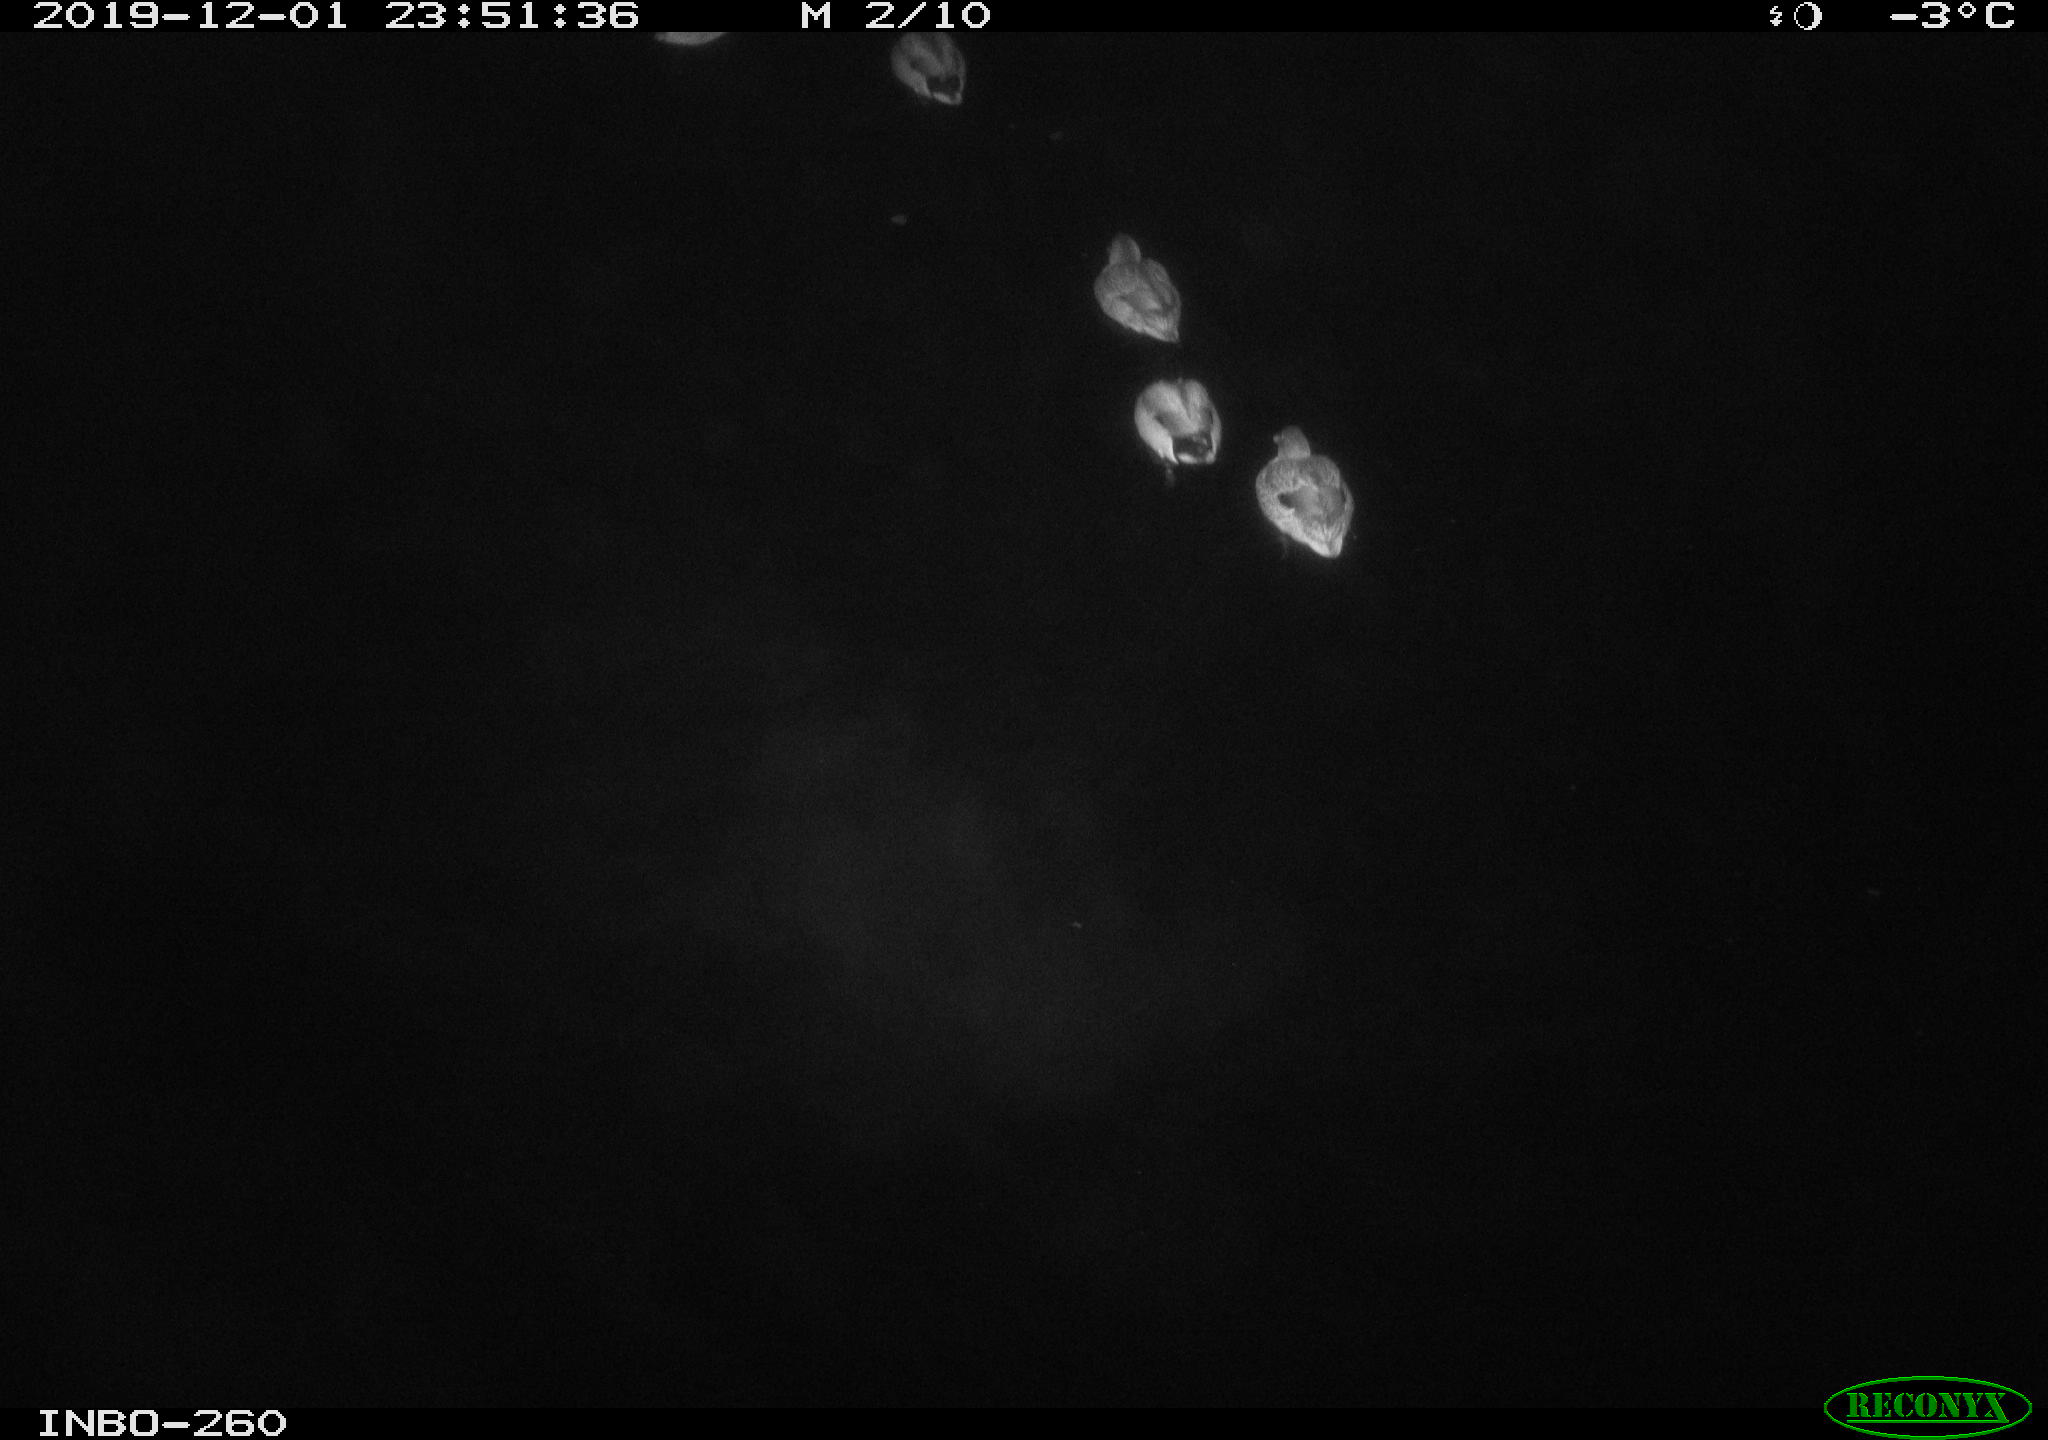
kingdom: Animalia
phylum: Chordata
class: Aves
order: Anseriformes
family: Anatidae
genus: Anas
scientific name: Anas platyrhynchos
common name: Mallard
